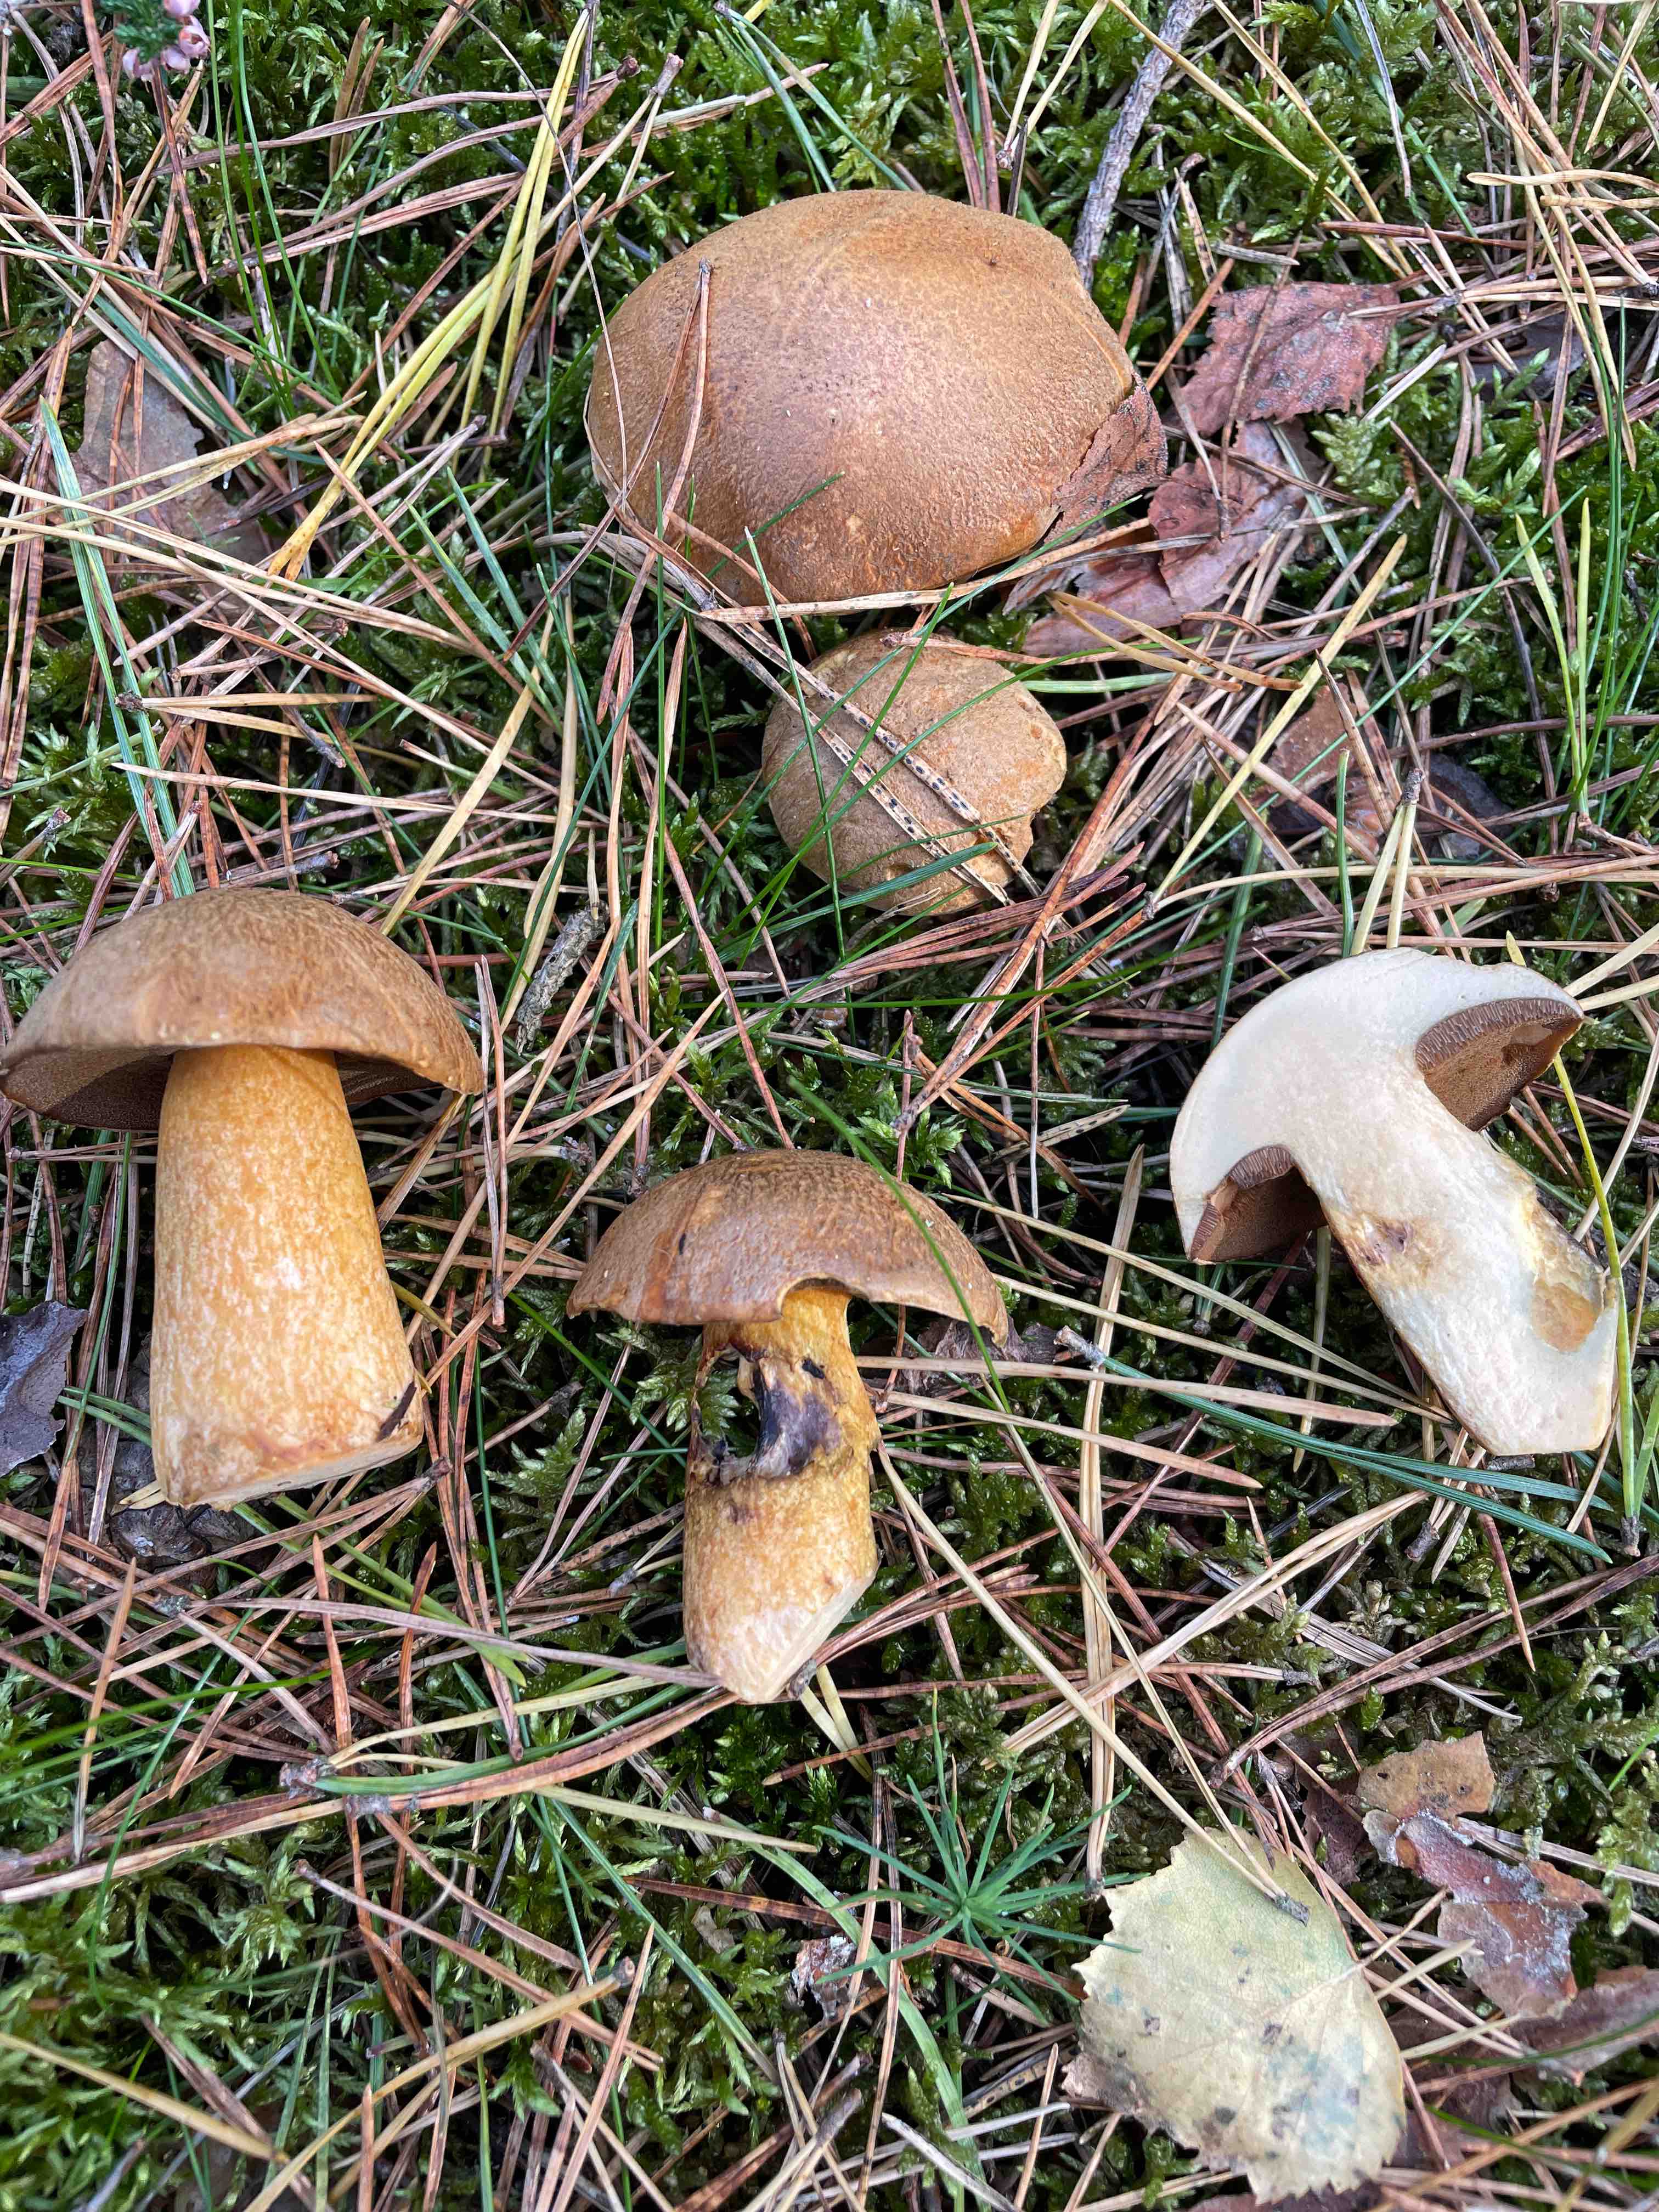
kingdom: Fungi
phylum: Basidiomycota
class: Agaricomycetes
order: Boletales
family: Suillaceae
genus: Suillus
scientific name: Suillus variegatus
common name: broget slimrørhat
